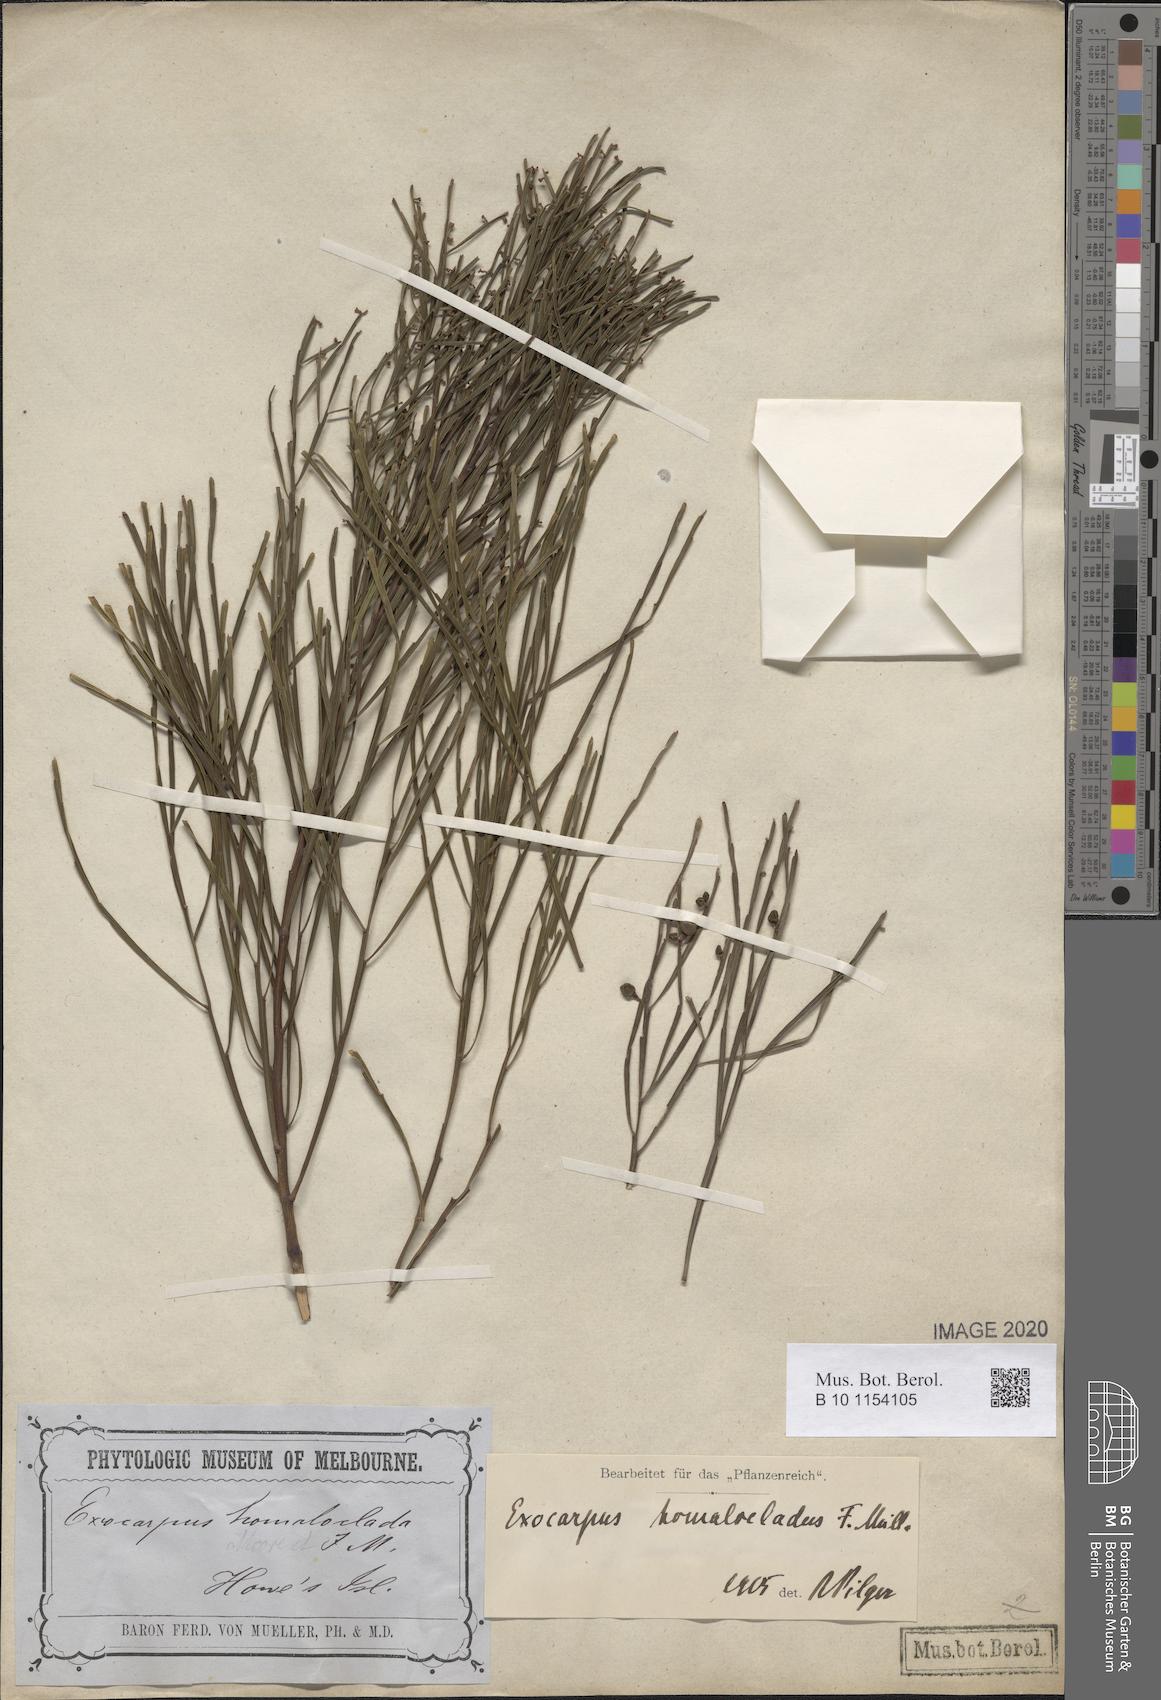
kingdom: Plantae
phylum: Tracheophyta
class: Magnoliopsida
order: Santalales
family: Santalaceae
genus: Exocarpos
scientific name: Exocarpos homalocladus
